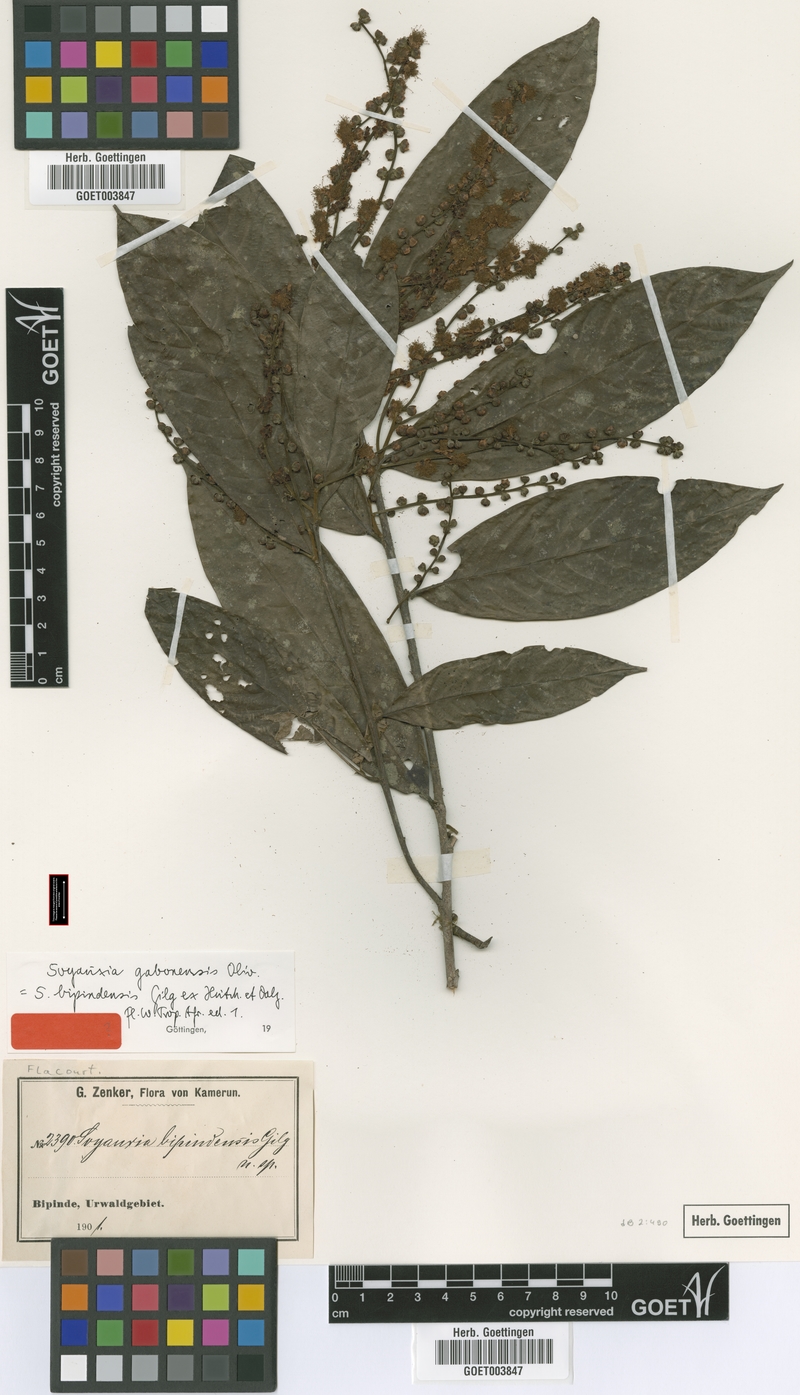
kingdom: Plantae
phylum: Tracheophyta
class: Magnoliopsida
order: Saxifragales
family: Peridiscaceae
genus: Soyauxia
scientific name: Soyauxia gabonensis
